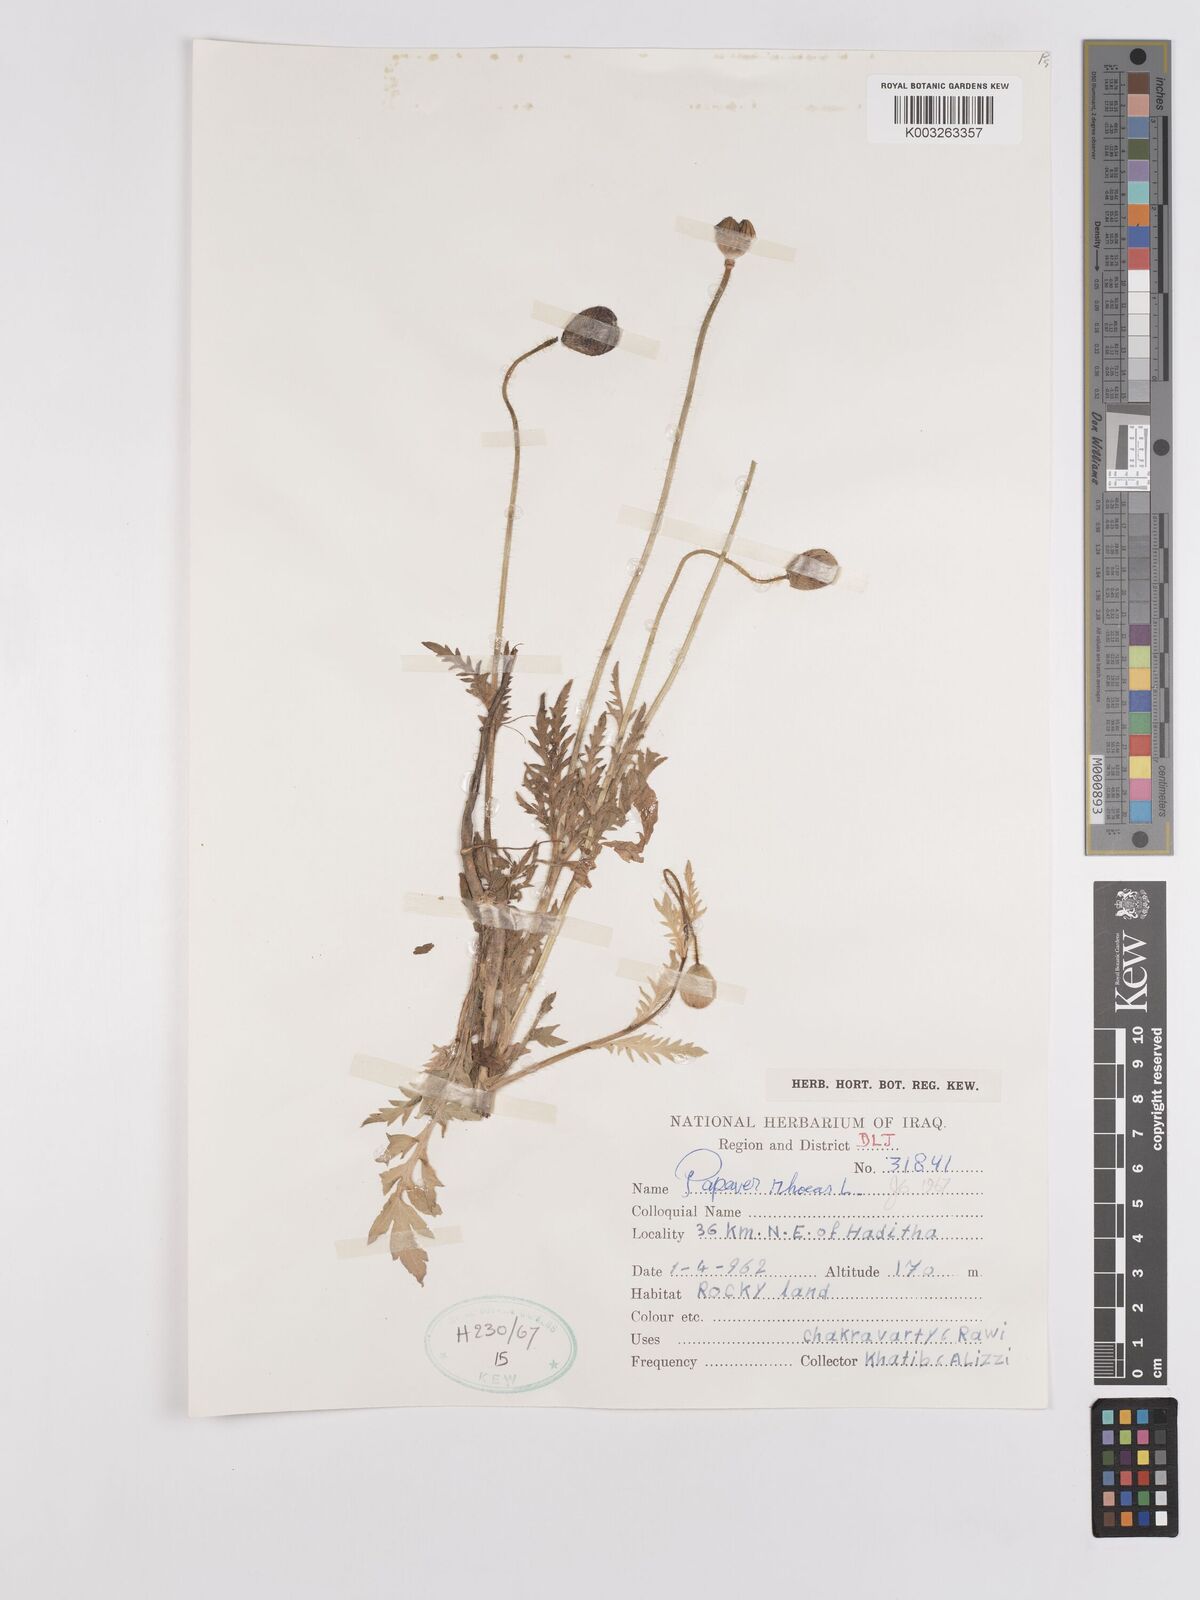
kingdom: Plantae
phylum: Tracheophyta
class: Magnoliopsida
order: Ranunculales
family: Papaveraceae
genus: Papaver
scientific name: Papaver rhoeas
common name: Corn poppy
